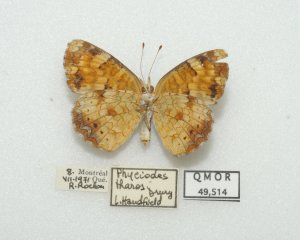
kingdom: Animalia
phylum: Arthropoda
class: Insecta
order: Lepidoptera
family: Nymphalidae
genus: Phyciodes
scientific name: Phyciodes tharos
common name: Northern Crescent
